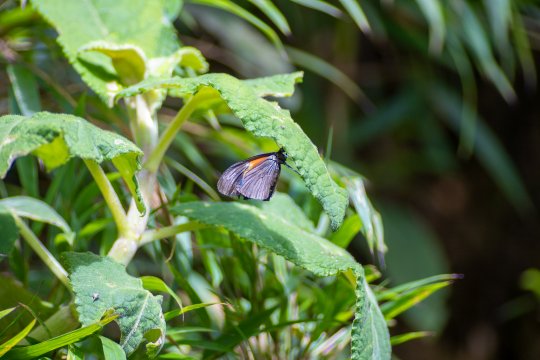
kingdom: Animalia
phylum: Arthropoda
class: Insecta
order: Lepidoptera
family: Nymphalidae
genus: Acraea
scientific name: Acraea Altinote ozomene
